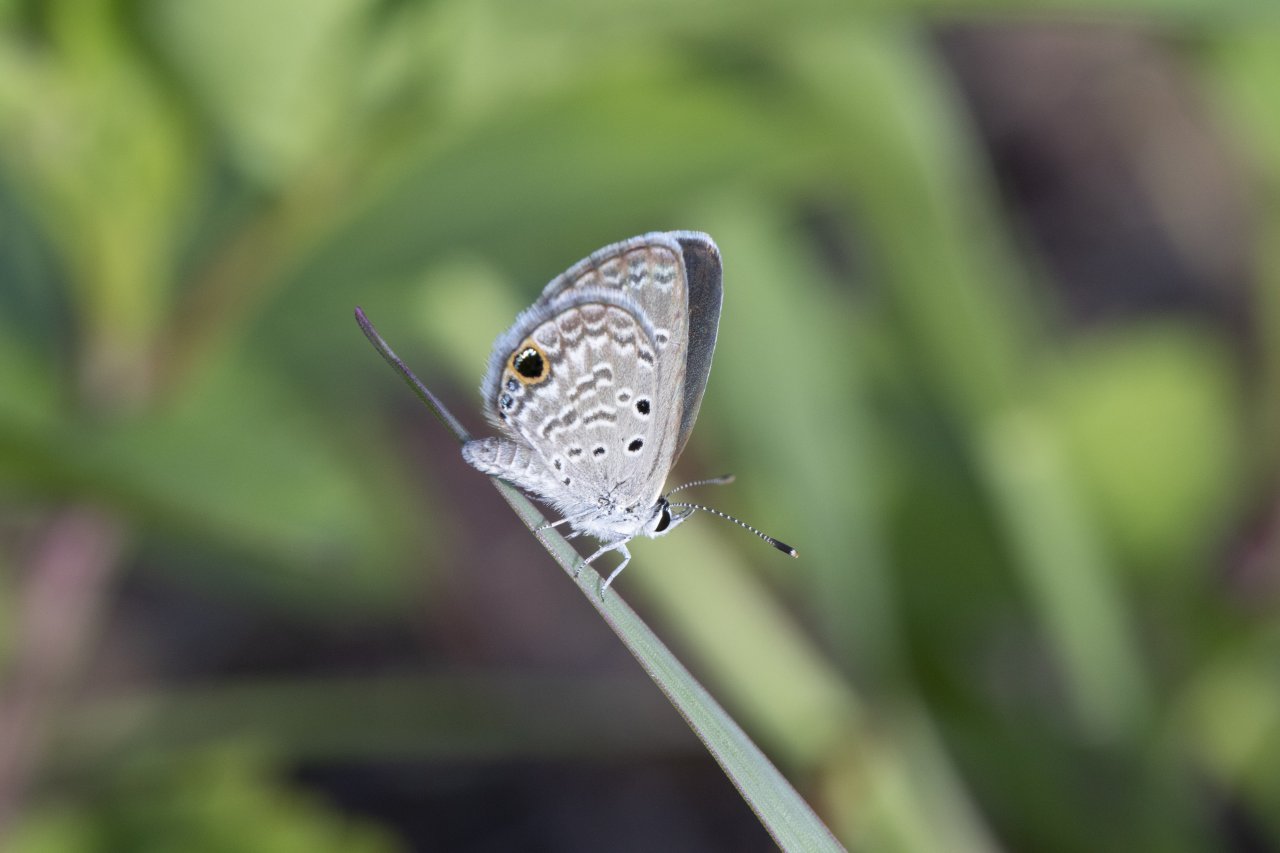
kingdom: Animalia
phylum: Arthropoda
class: Insecta
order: Lepidoptera
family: Lycaenidae
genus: Hemiargus
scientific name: Hemiargus ceraunus
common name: Ceraunus Blue
